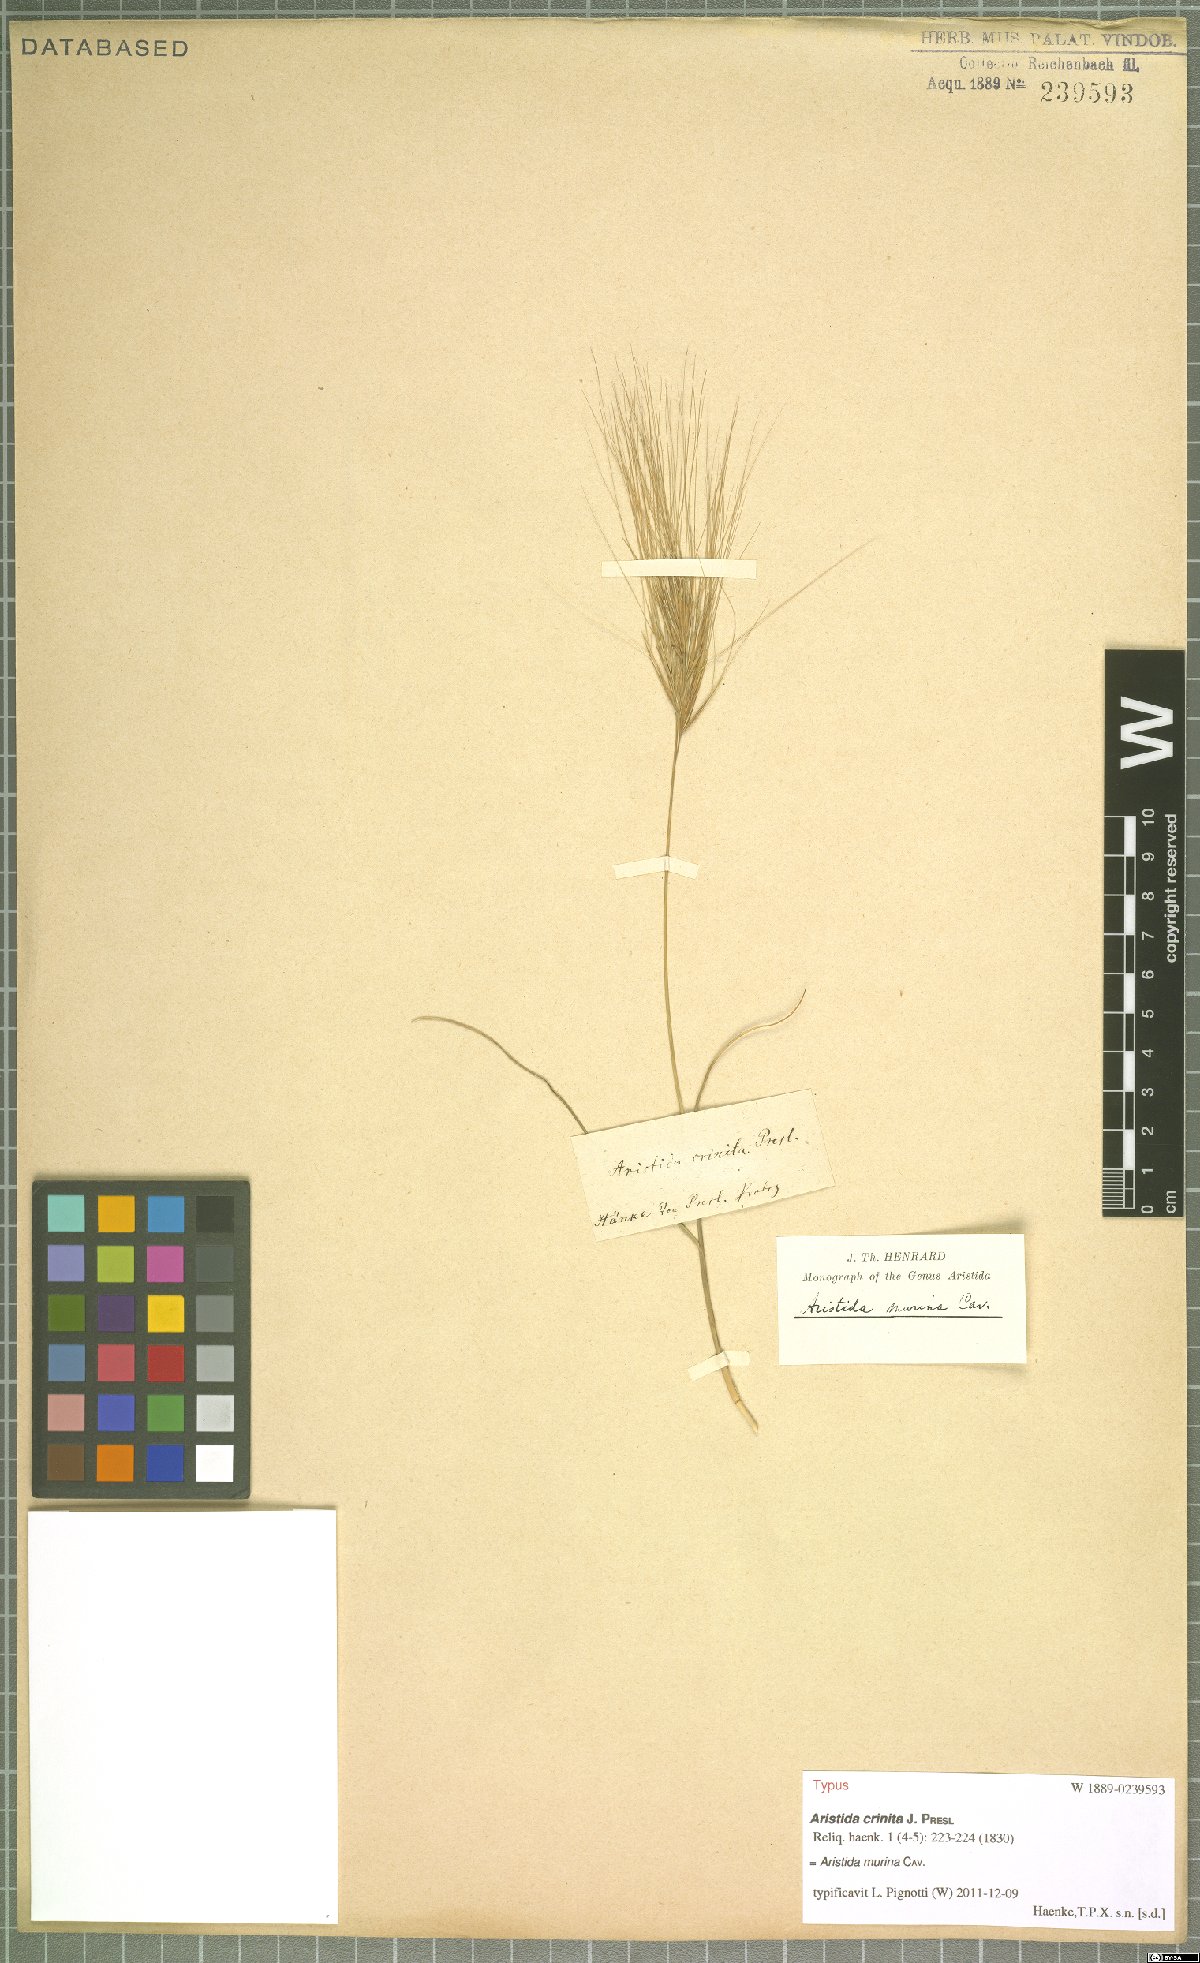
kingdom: Plantae
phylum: Tracheophyta
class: Liliopsida
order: Poales
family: Poaceae
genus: Aristida
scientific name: Aristida murina
